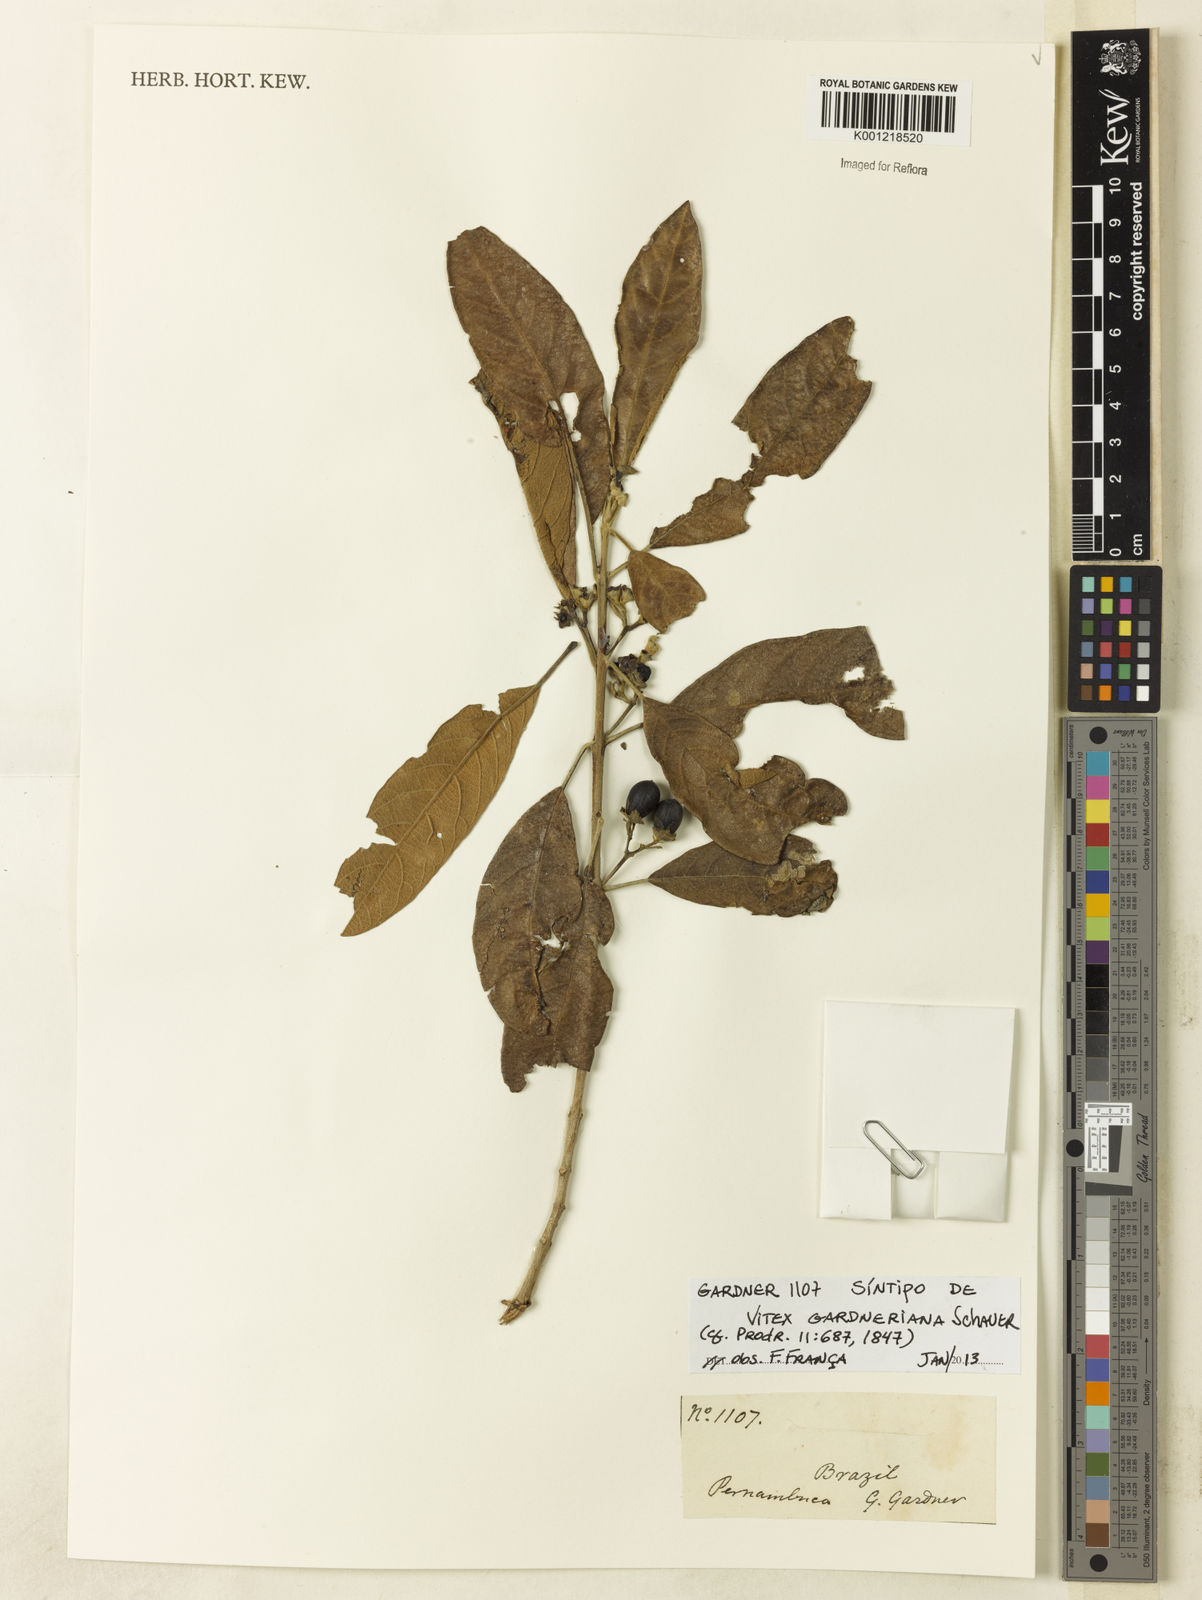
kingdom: Plantae
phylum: Tracheophyta
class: Magnoliopsida
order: Lamiales
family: Lamiaceae
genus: Vitex
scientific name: Vitex gardneriana
